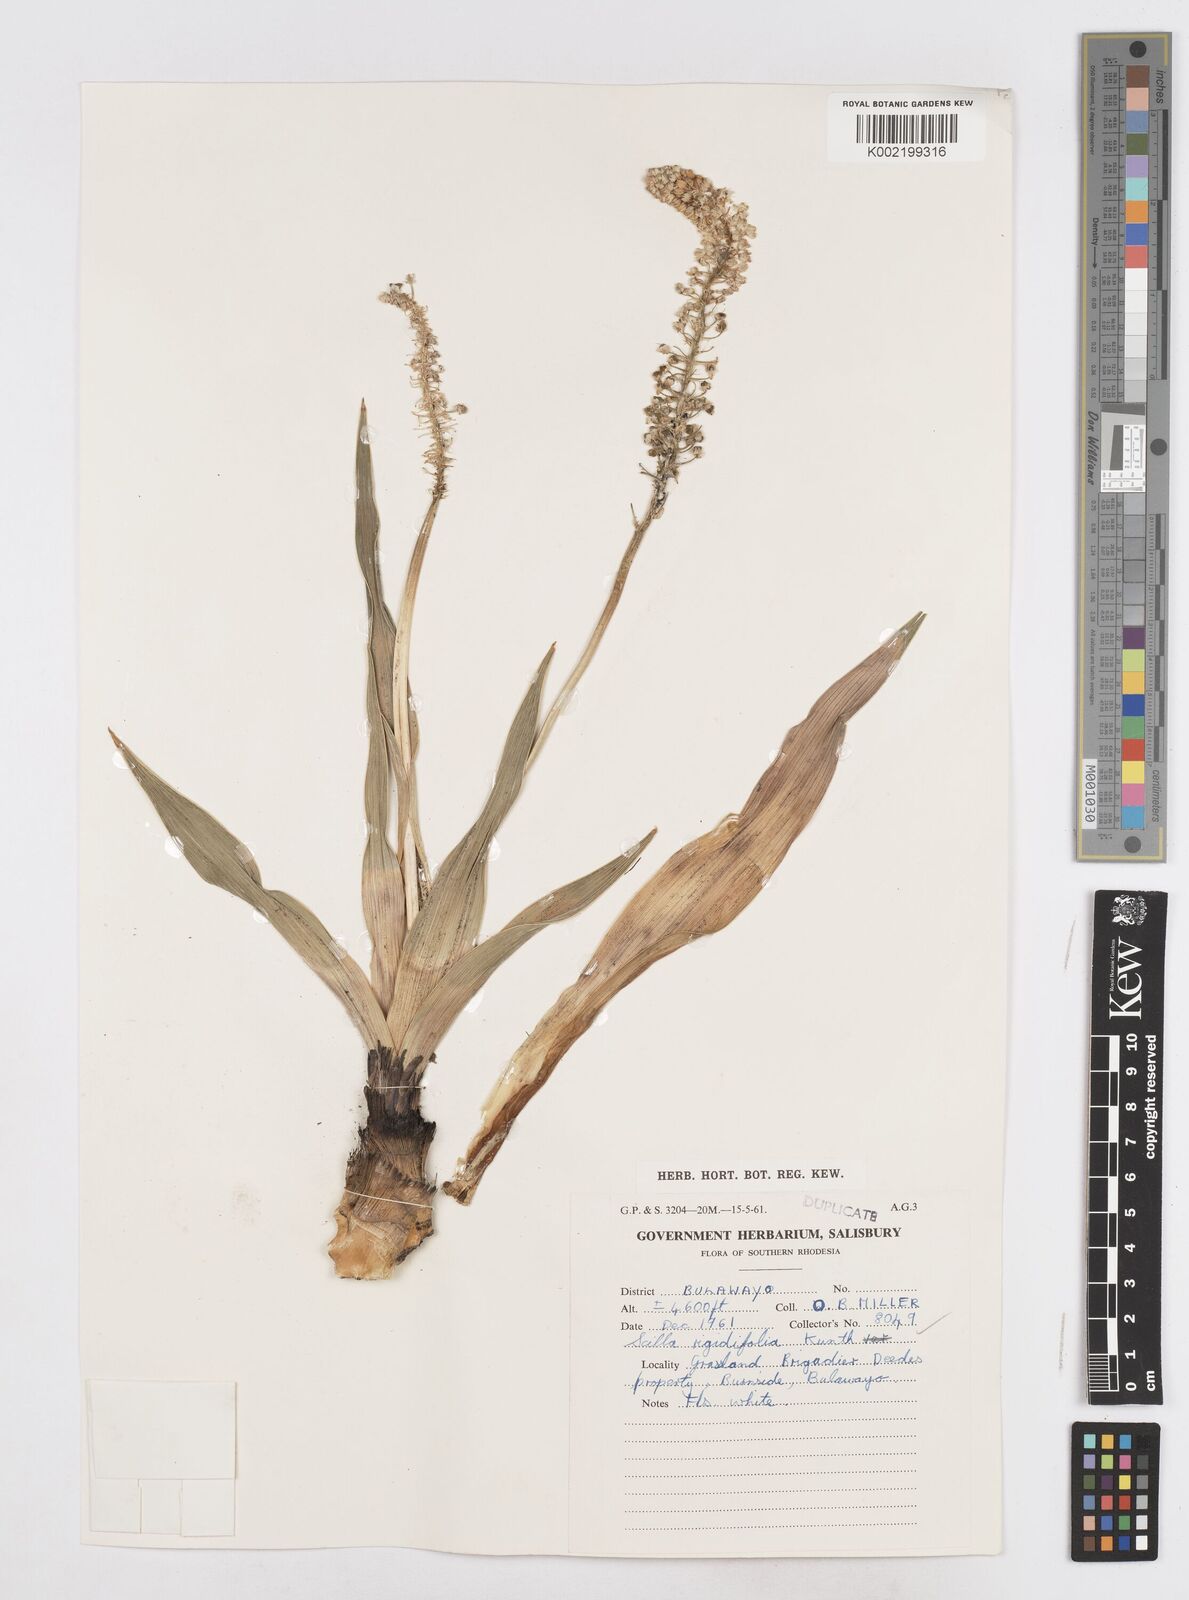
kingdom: Plantae
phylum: Tracheophyta
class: Liliopsida
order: Asparagales
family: Asparagaceae
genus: Schizocarphus
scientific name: Schizocarphus nervosus
